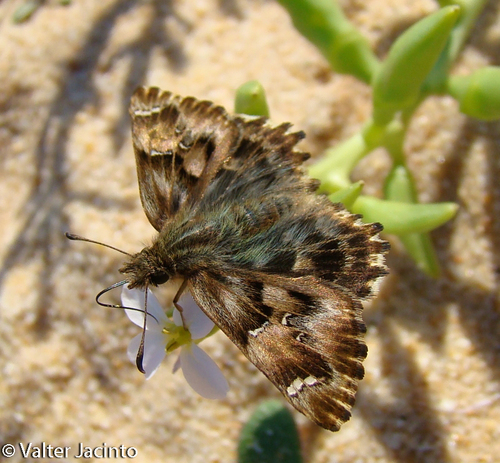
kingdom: Animalia
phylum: Arthropoda
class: Insecta
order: Lepidoptera
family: Hesperiidae
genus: Carcharodus
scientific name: Carcharodus alceae
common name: Mallow skipper
